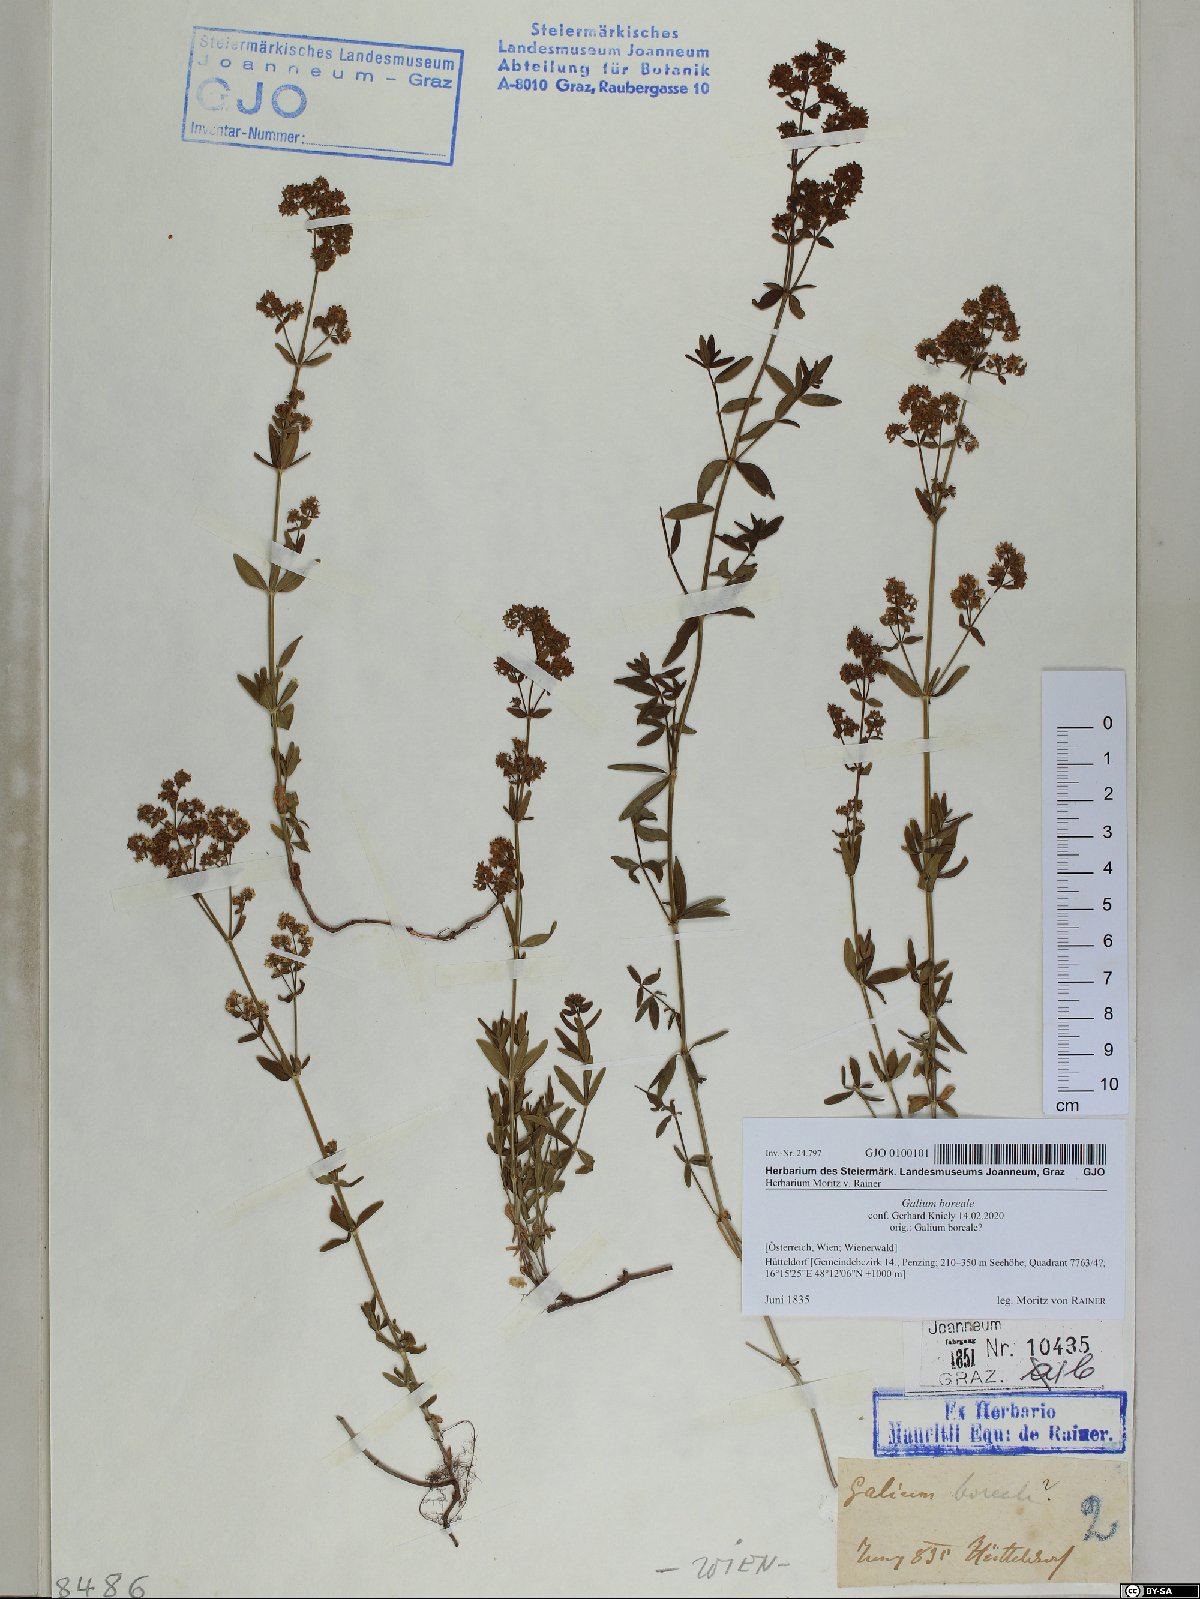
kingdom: Plantae
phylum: Tracheophyta
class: Magnoliopsida
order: Gentianales
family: Rubiaceae
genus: Galium
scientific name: Galium boreale
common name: Northern bedstraw
